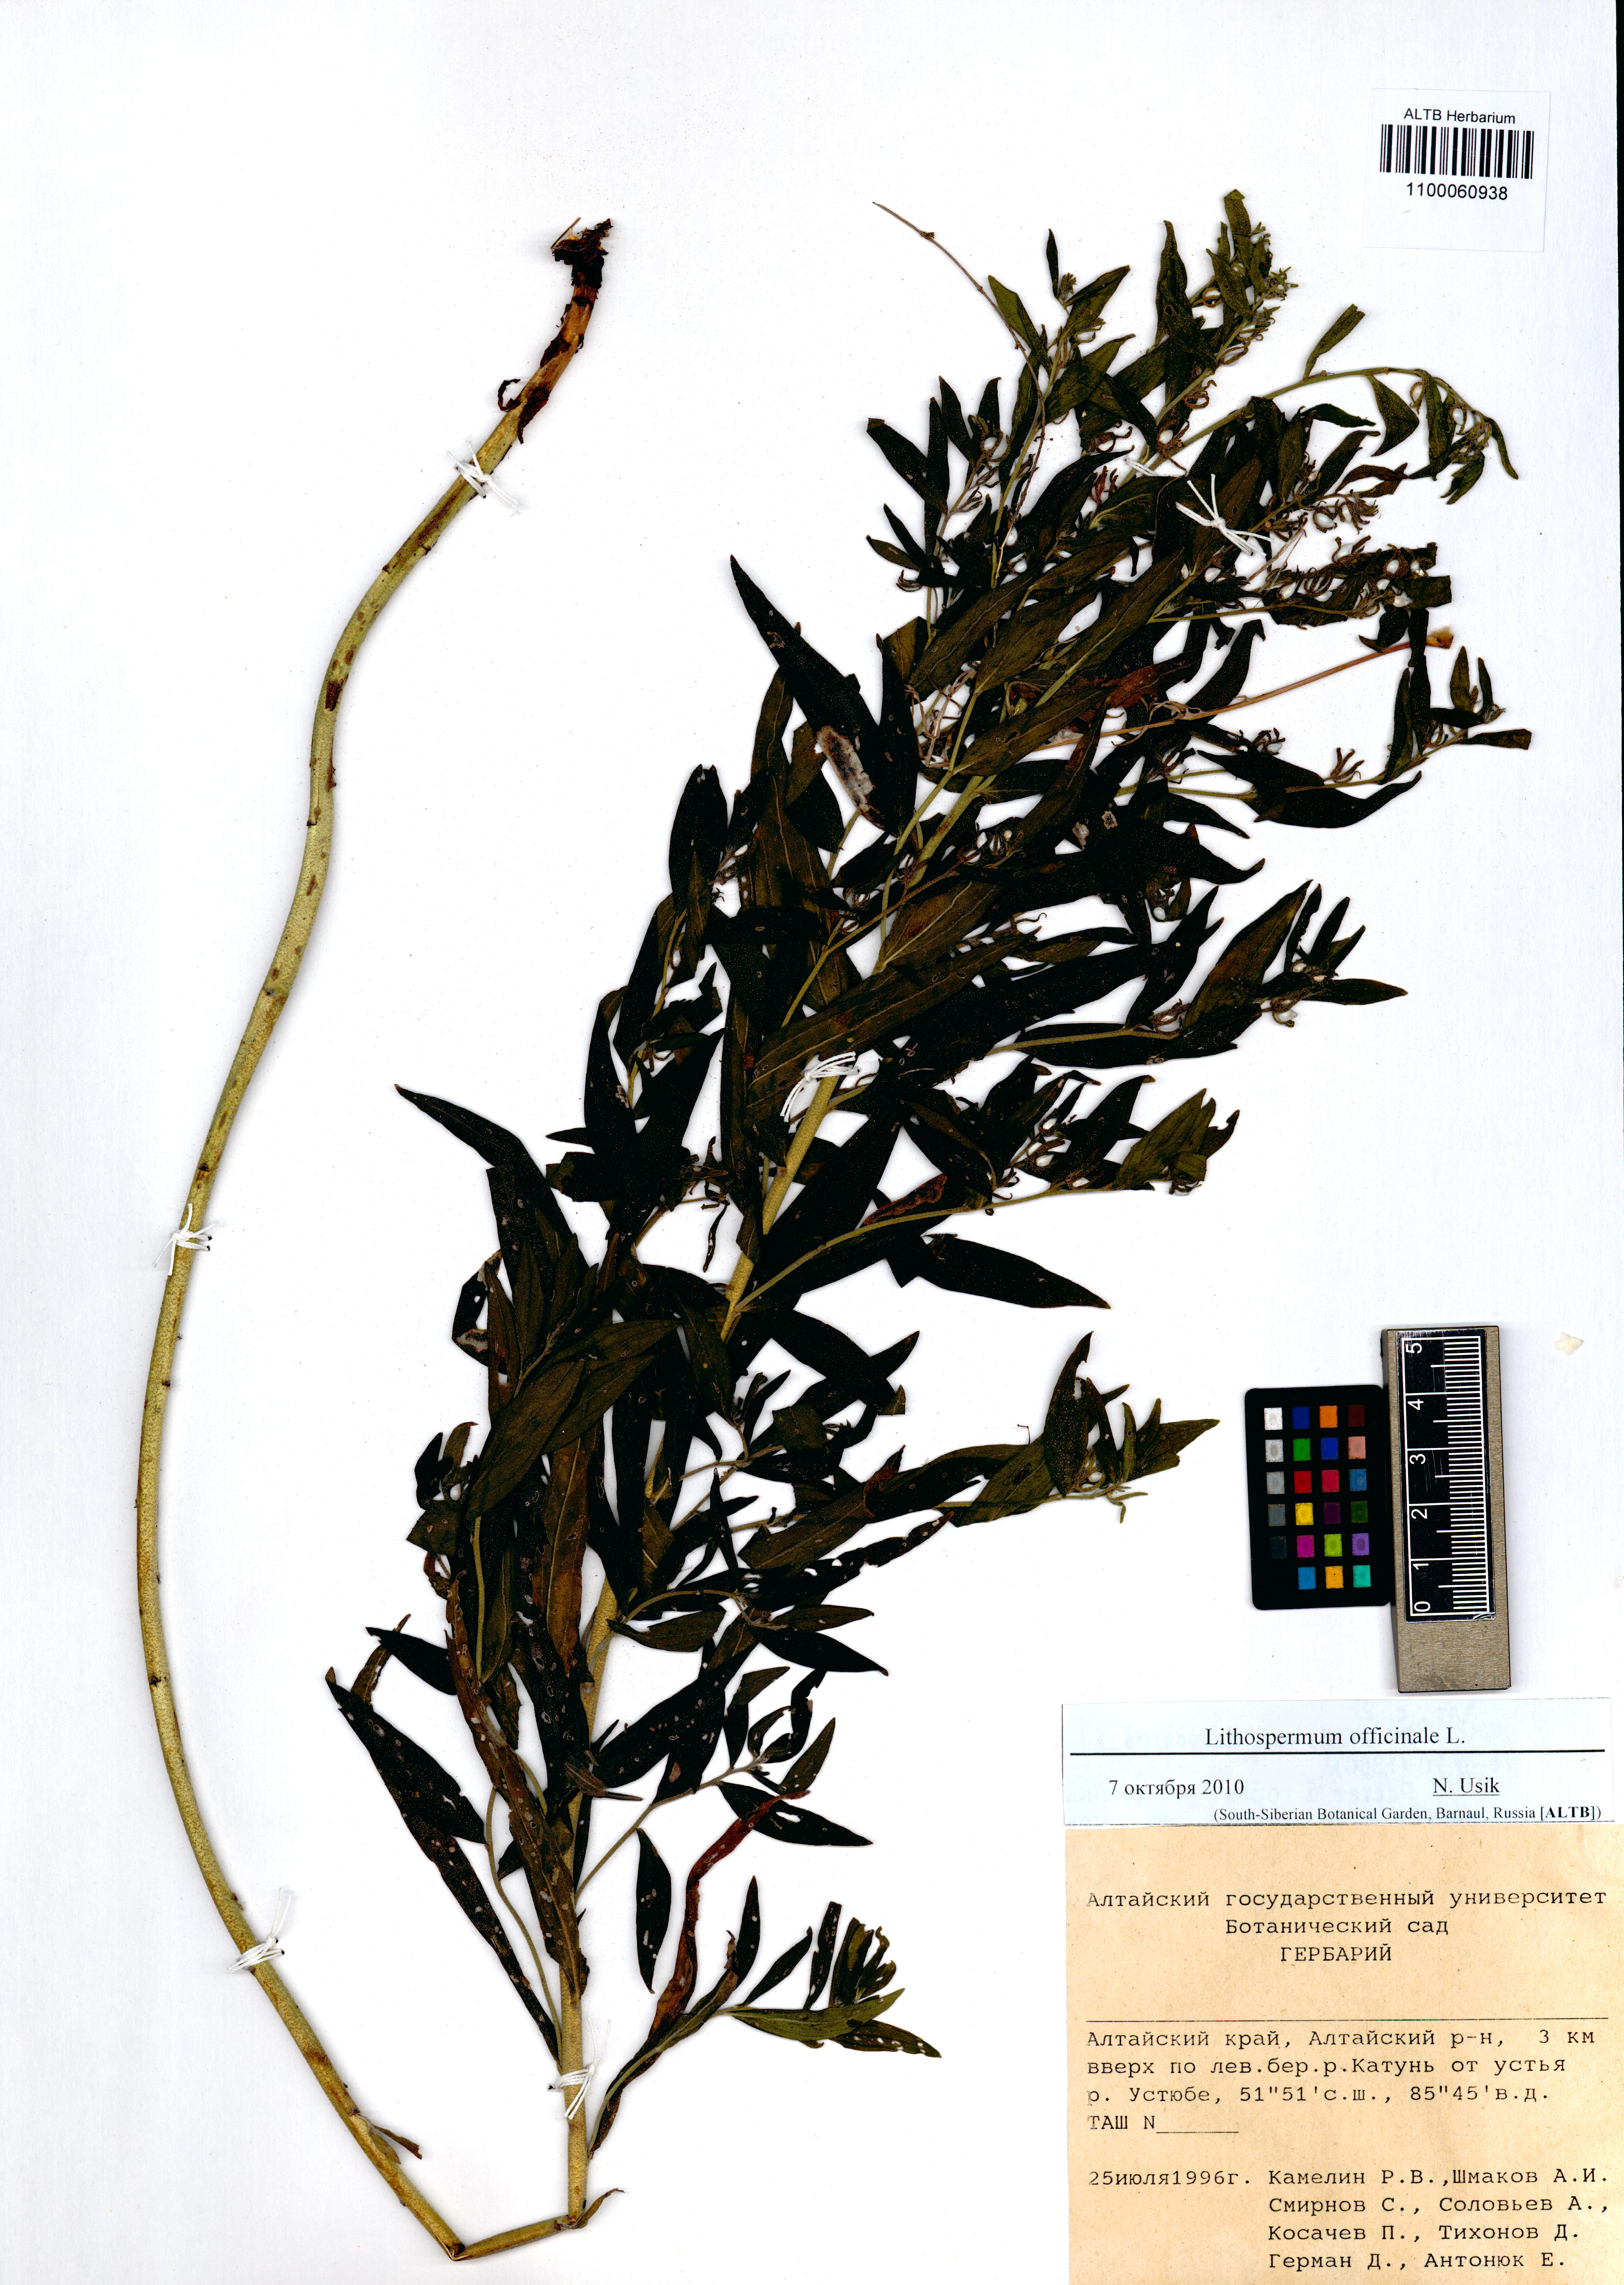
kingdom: Plantae
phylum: Tracheophyta
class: Magnoliopsida
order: Boraginales
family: Boraginaceae
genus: Lithospermum
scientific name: Lithospermum officinale
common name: Common gromwell
